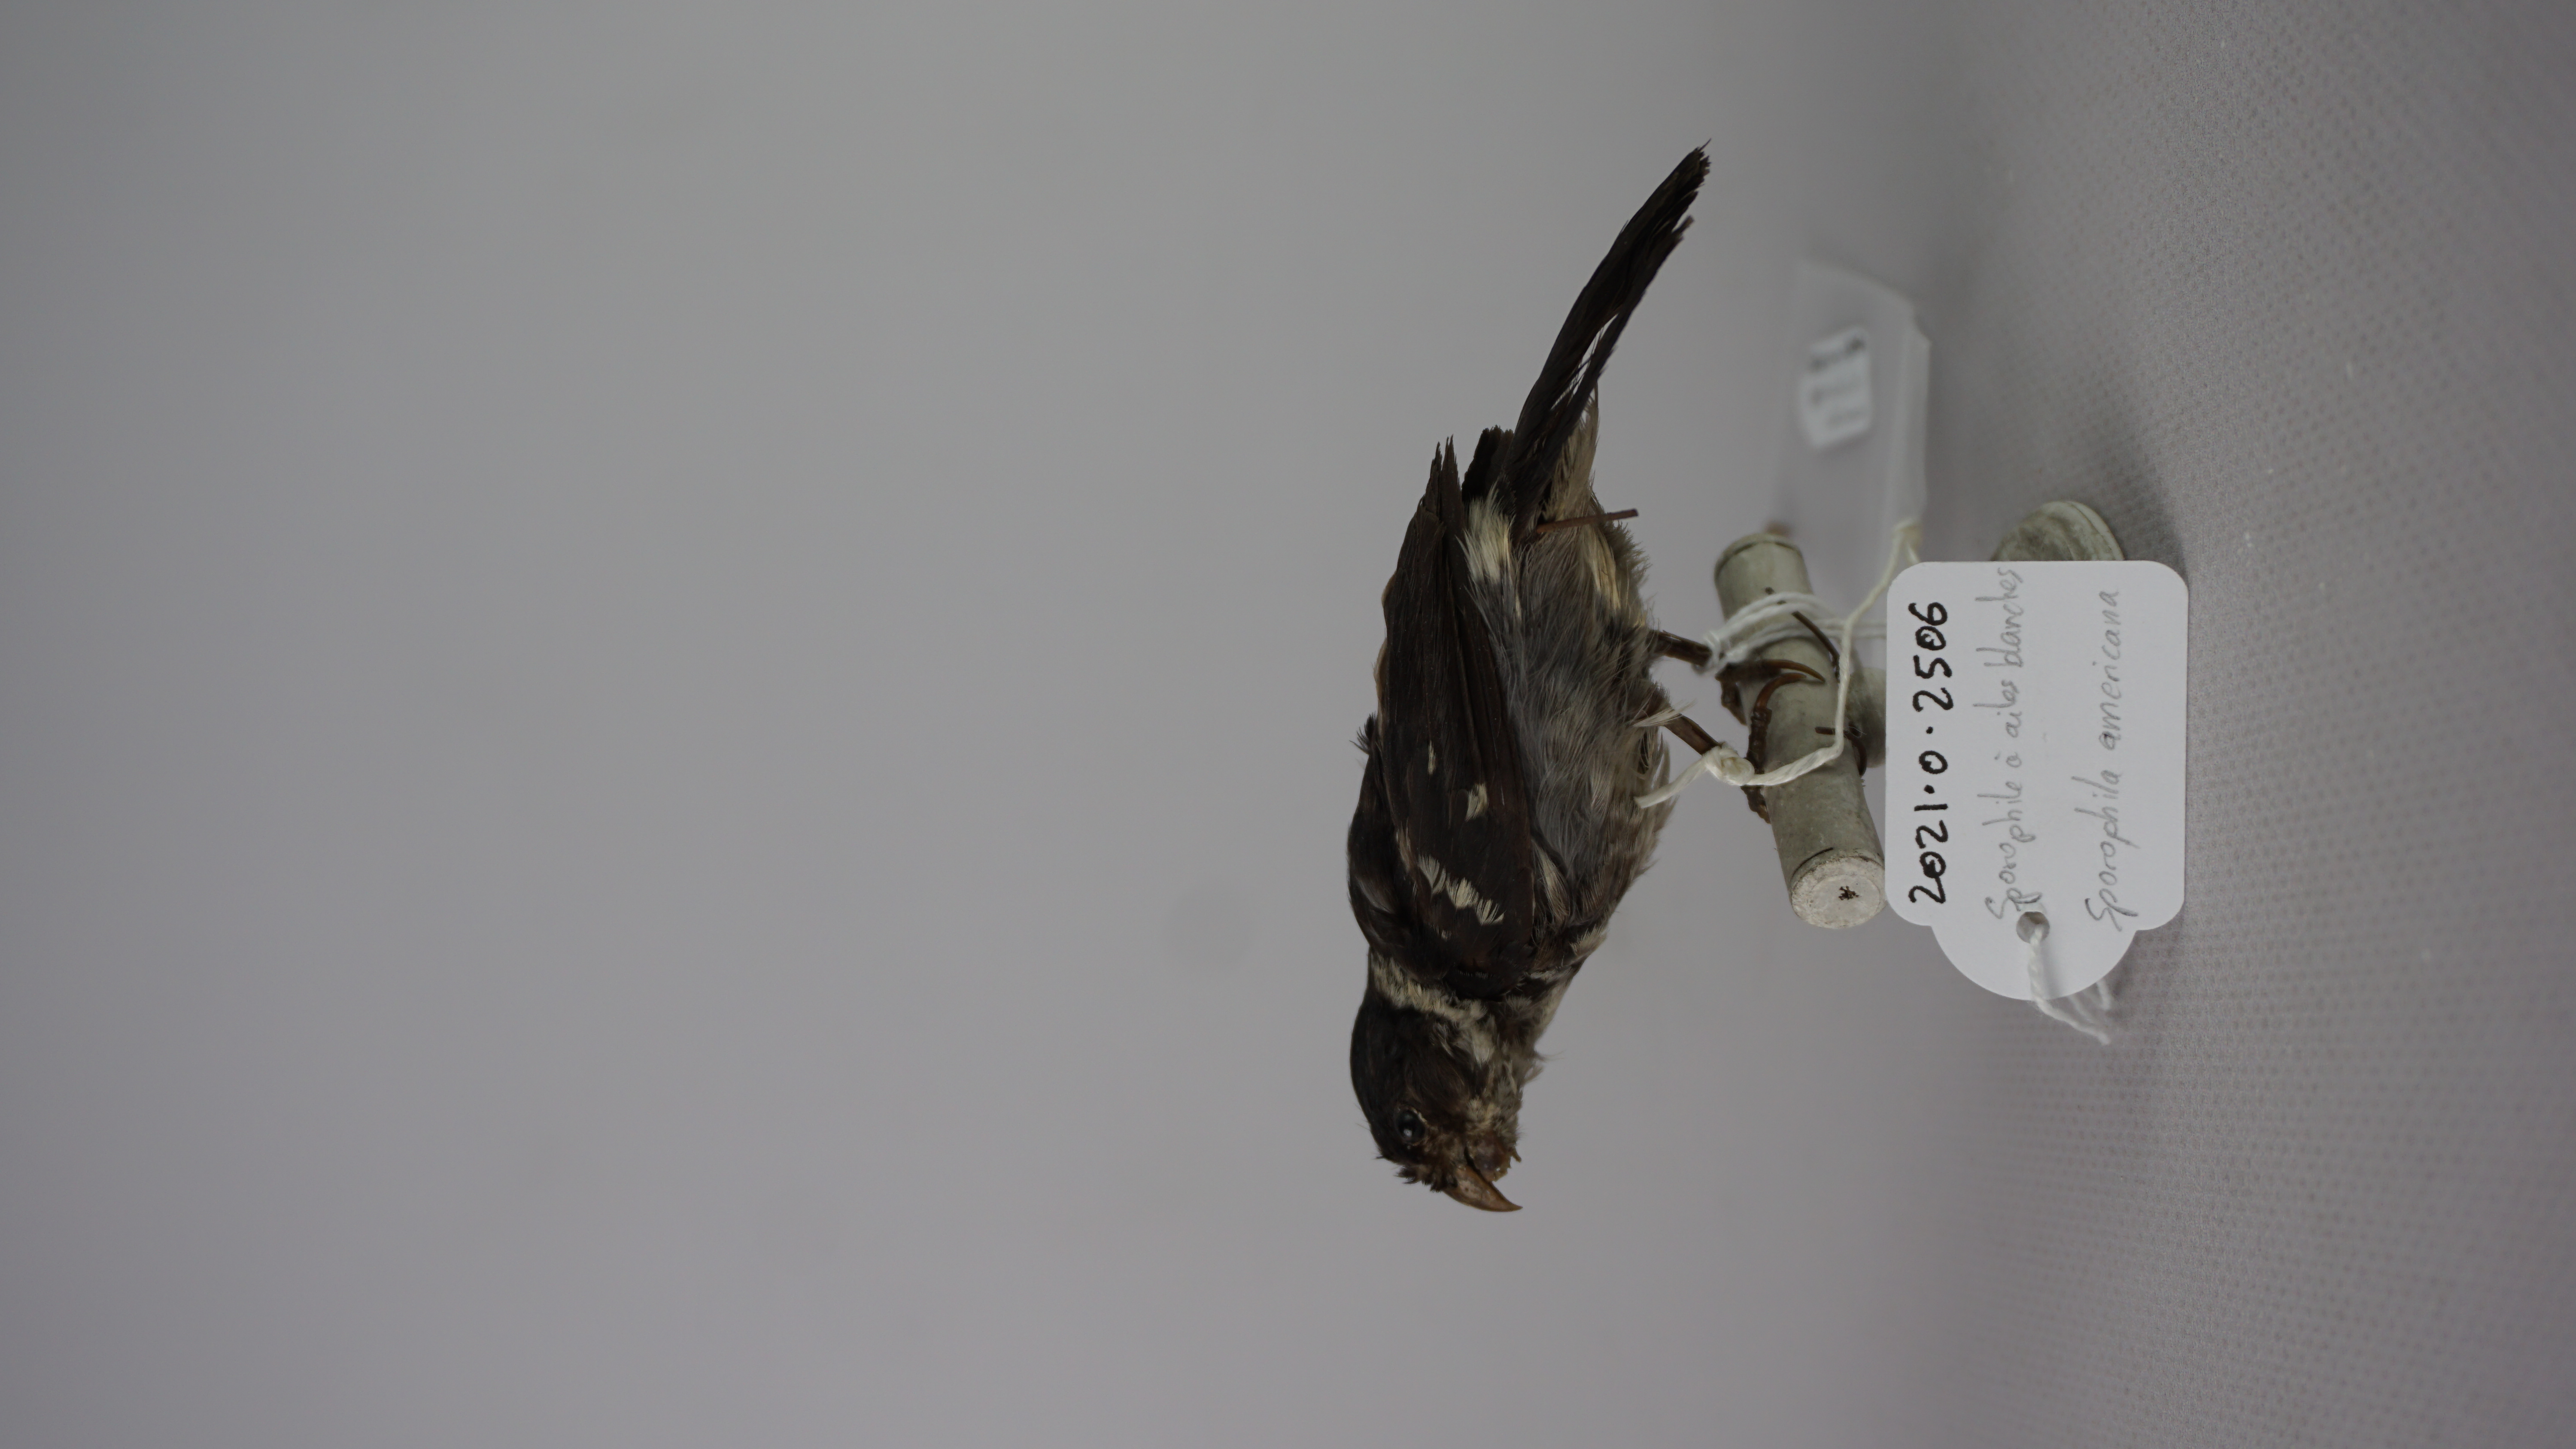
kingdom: Animalia
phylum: Chordata
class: Aves
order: Passeriformes
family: Thraupidae
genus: Sporophila
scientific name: Sporophila americana
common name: Wing-barred seedeater
